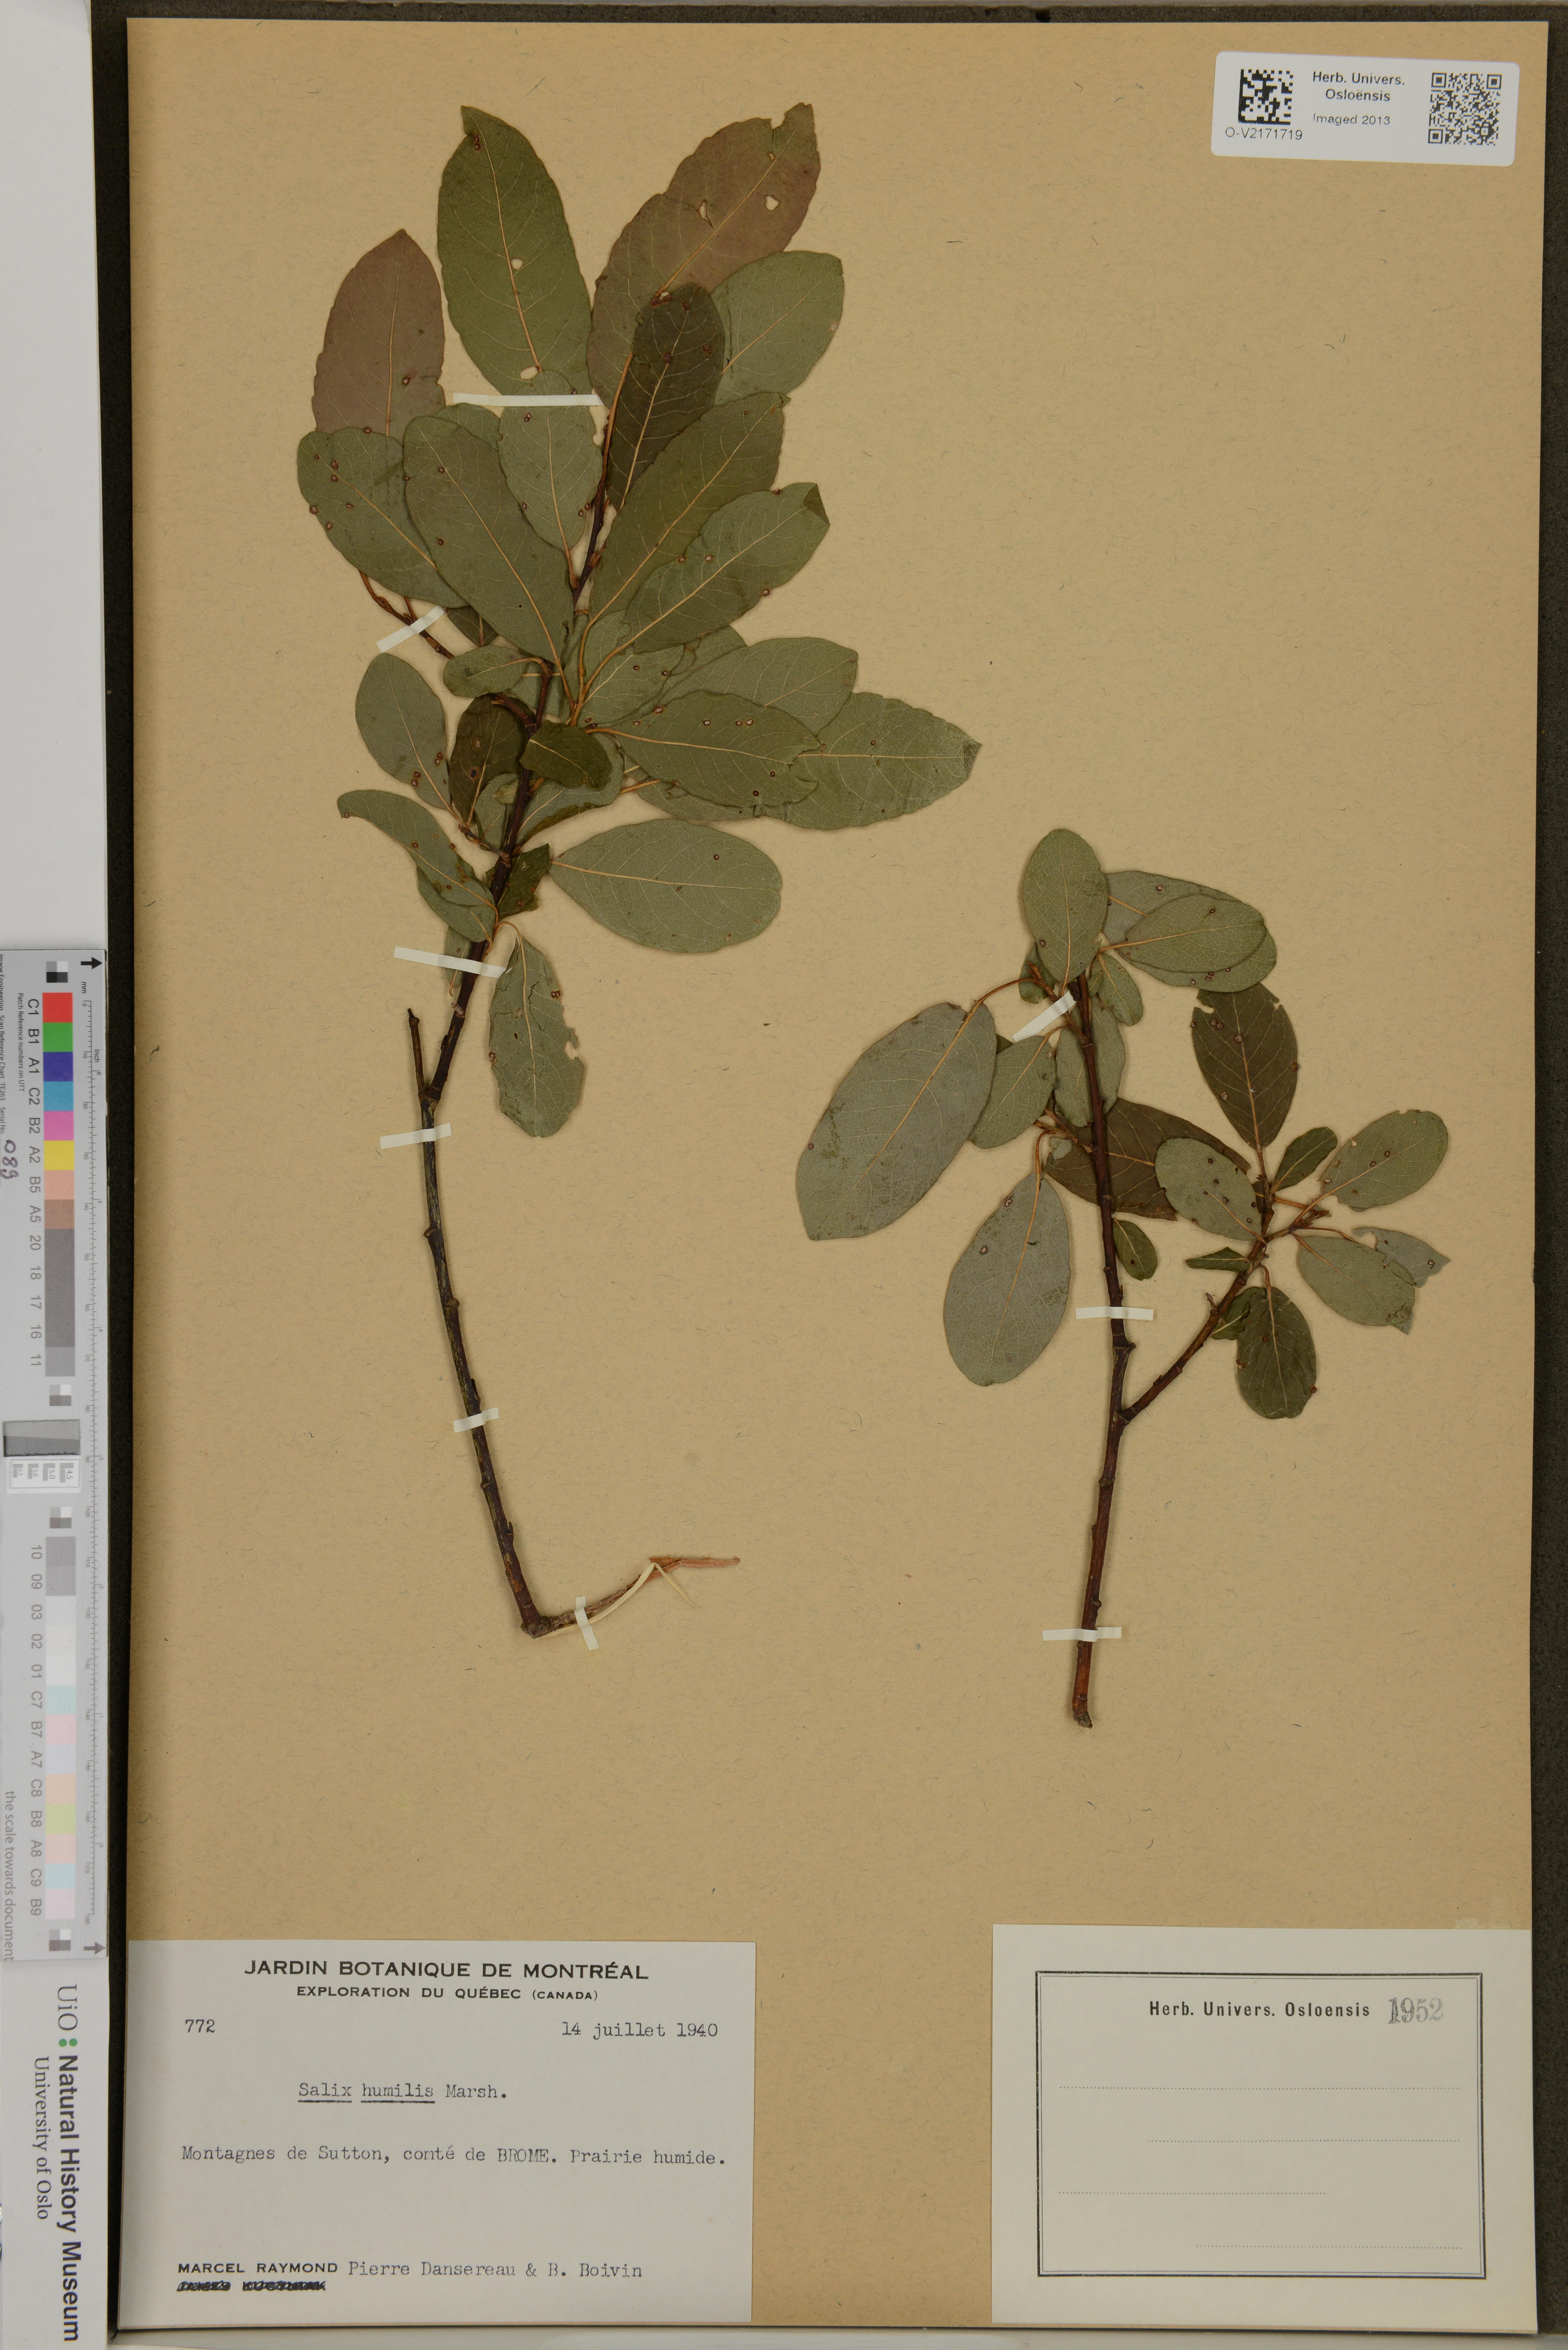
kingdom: Plantae
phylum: Tracheophyta
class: Magnoliopsida
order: Malpighiales
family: Salicaceae
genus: Salix
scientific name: Salix humilis
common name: Prairie willow
